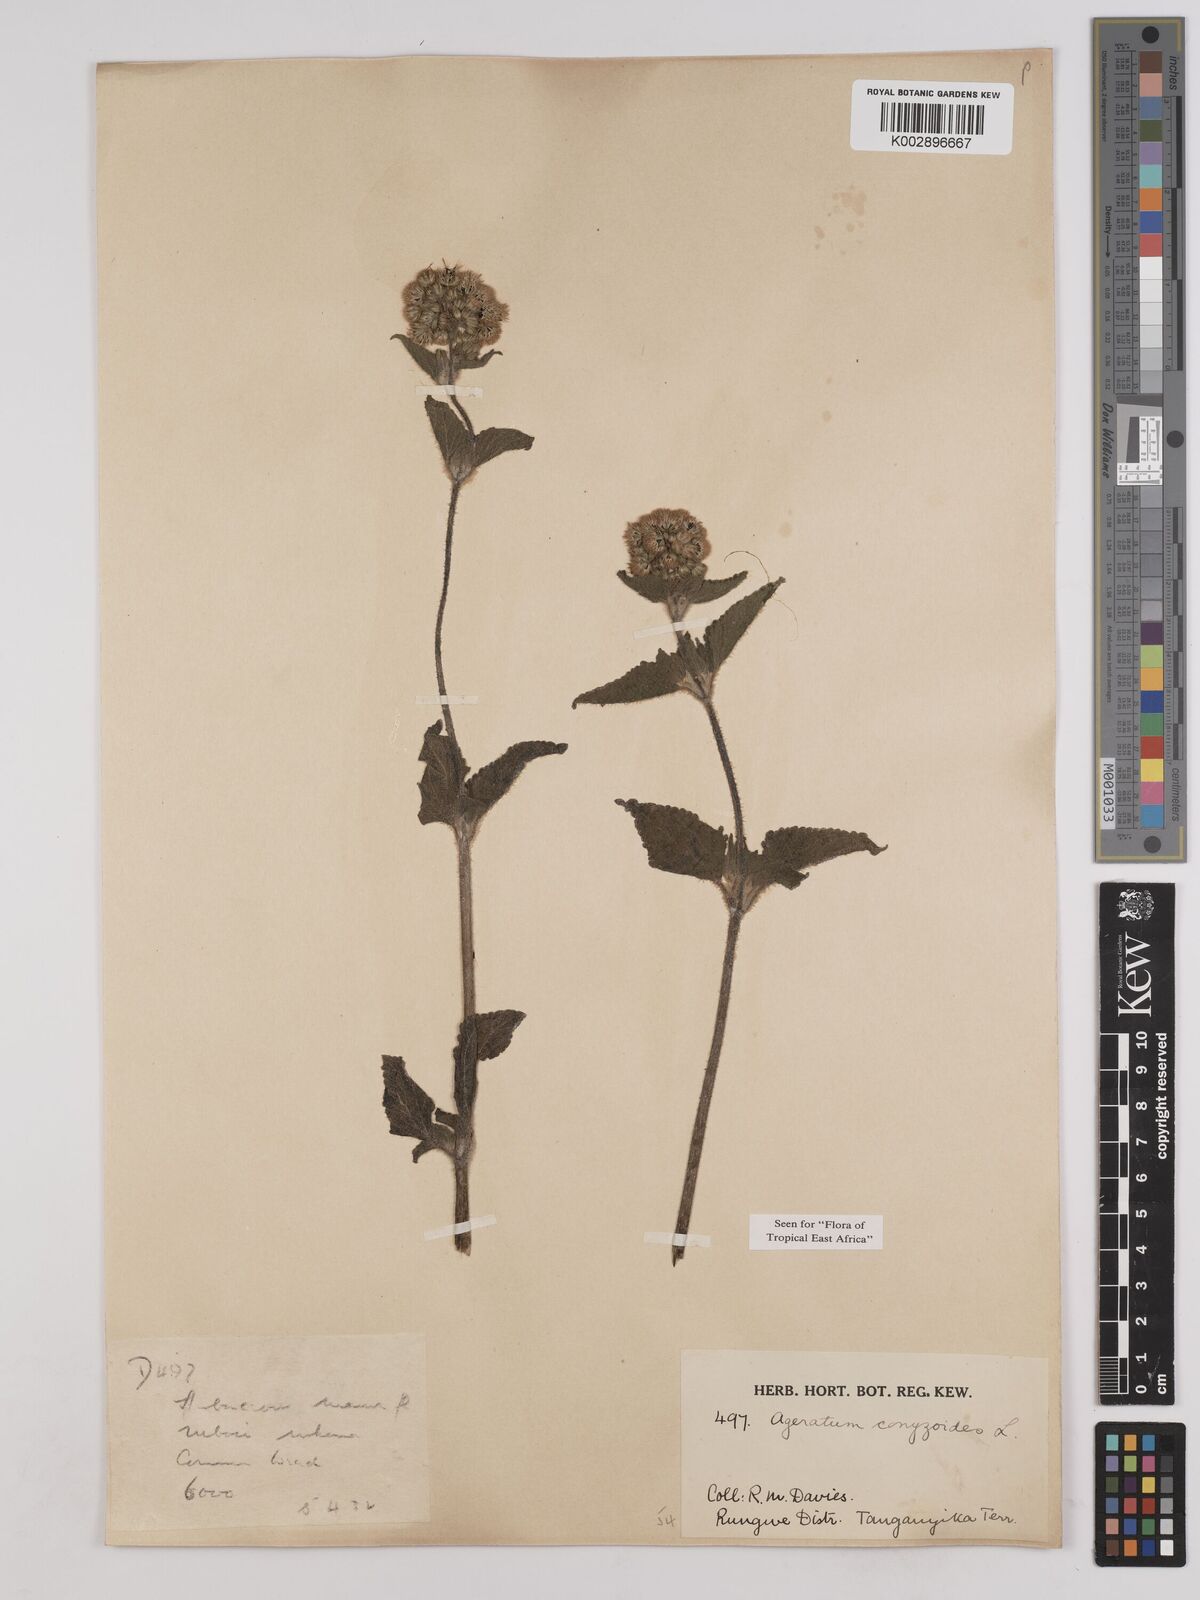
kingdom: Plantae
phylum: Tracheophyta
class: Magnoliopsida
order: Asterales
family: Asteraceae
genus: Ageratum
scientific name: Ageratum conyzoides
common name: Tropical whiteweed
